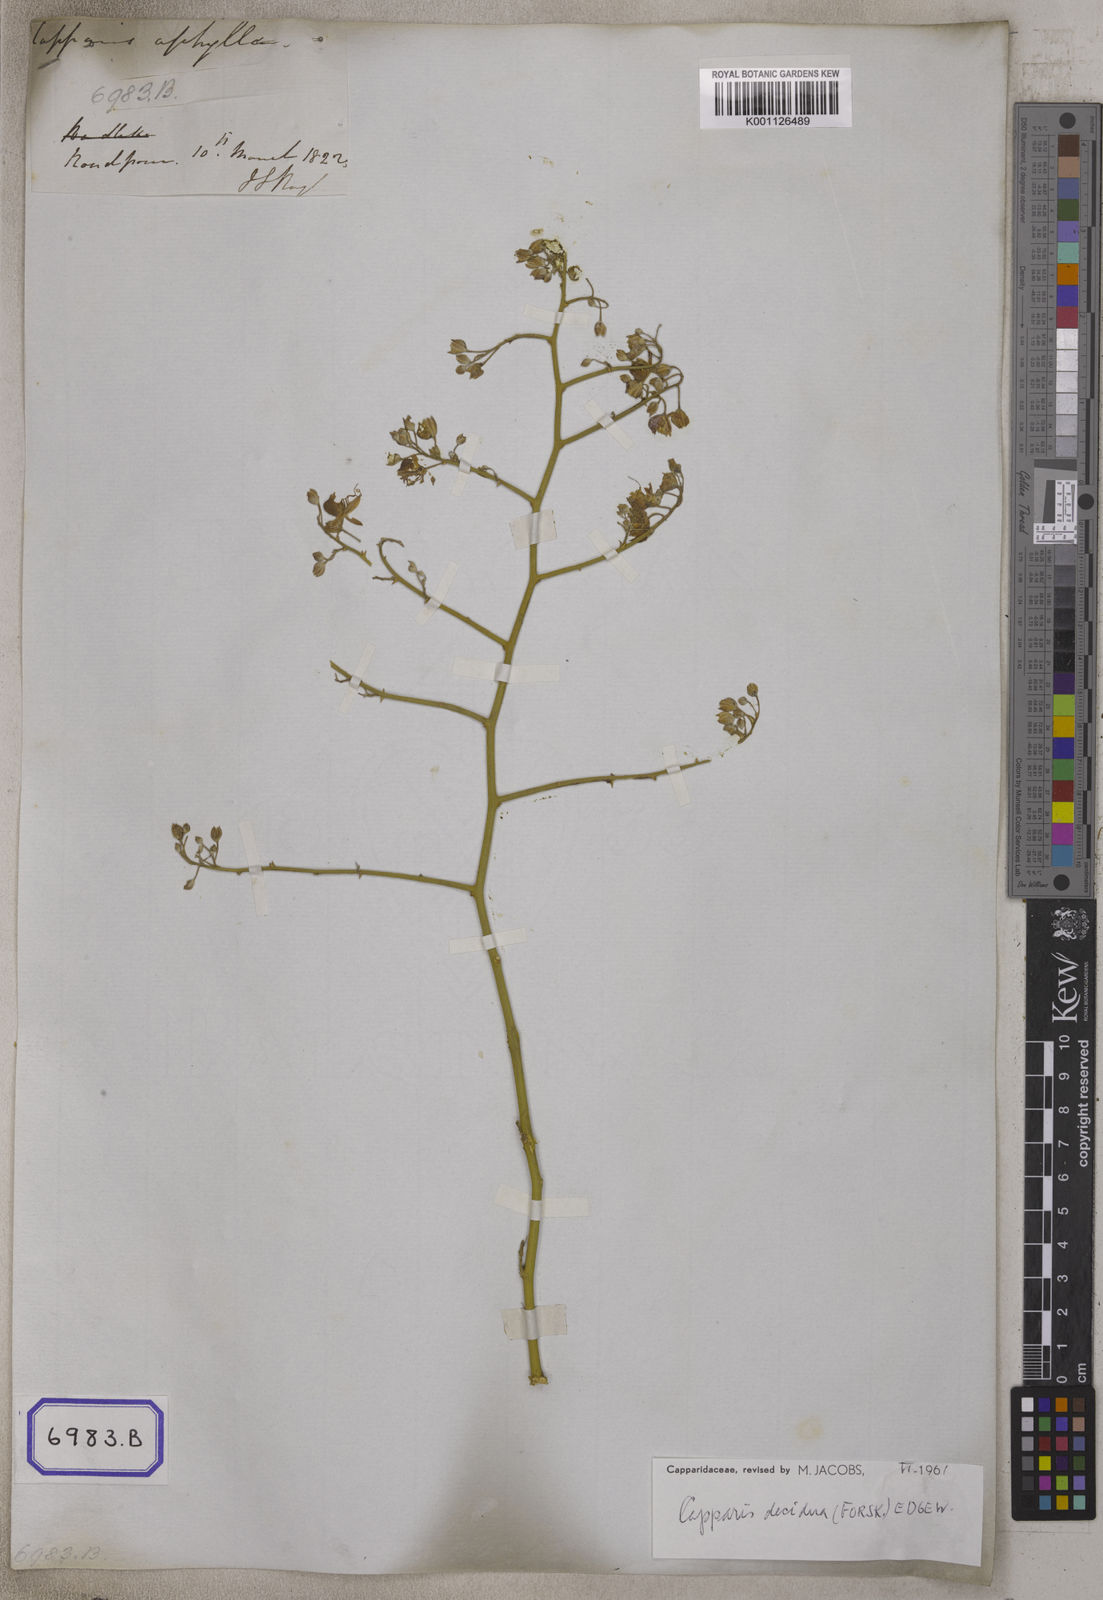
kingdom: Plantae
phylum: Tracheophyta
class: Magnoliopsida
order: Brassicales
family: Capparaceae
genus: Capparis
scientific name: Capparis decidua
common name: Sodada
